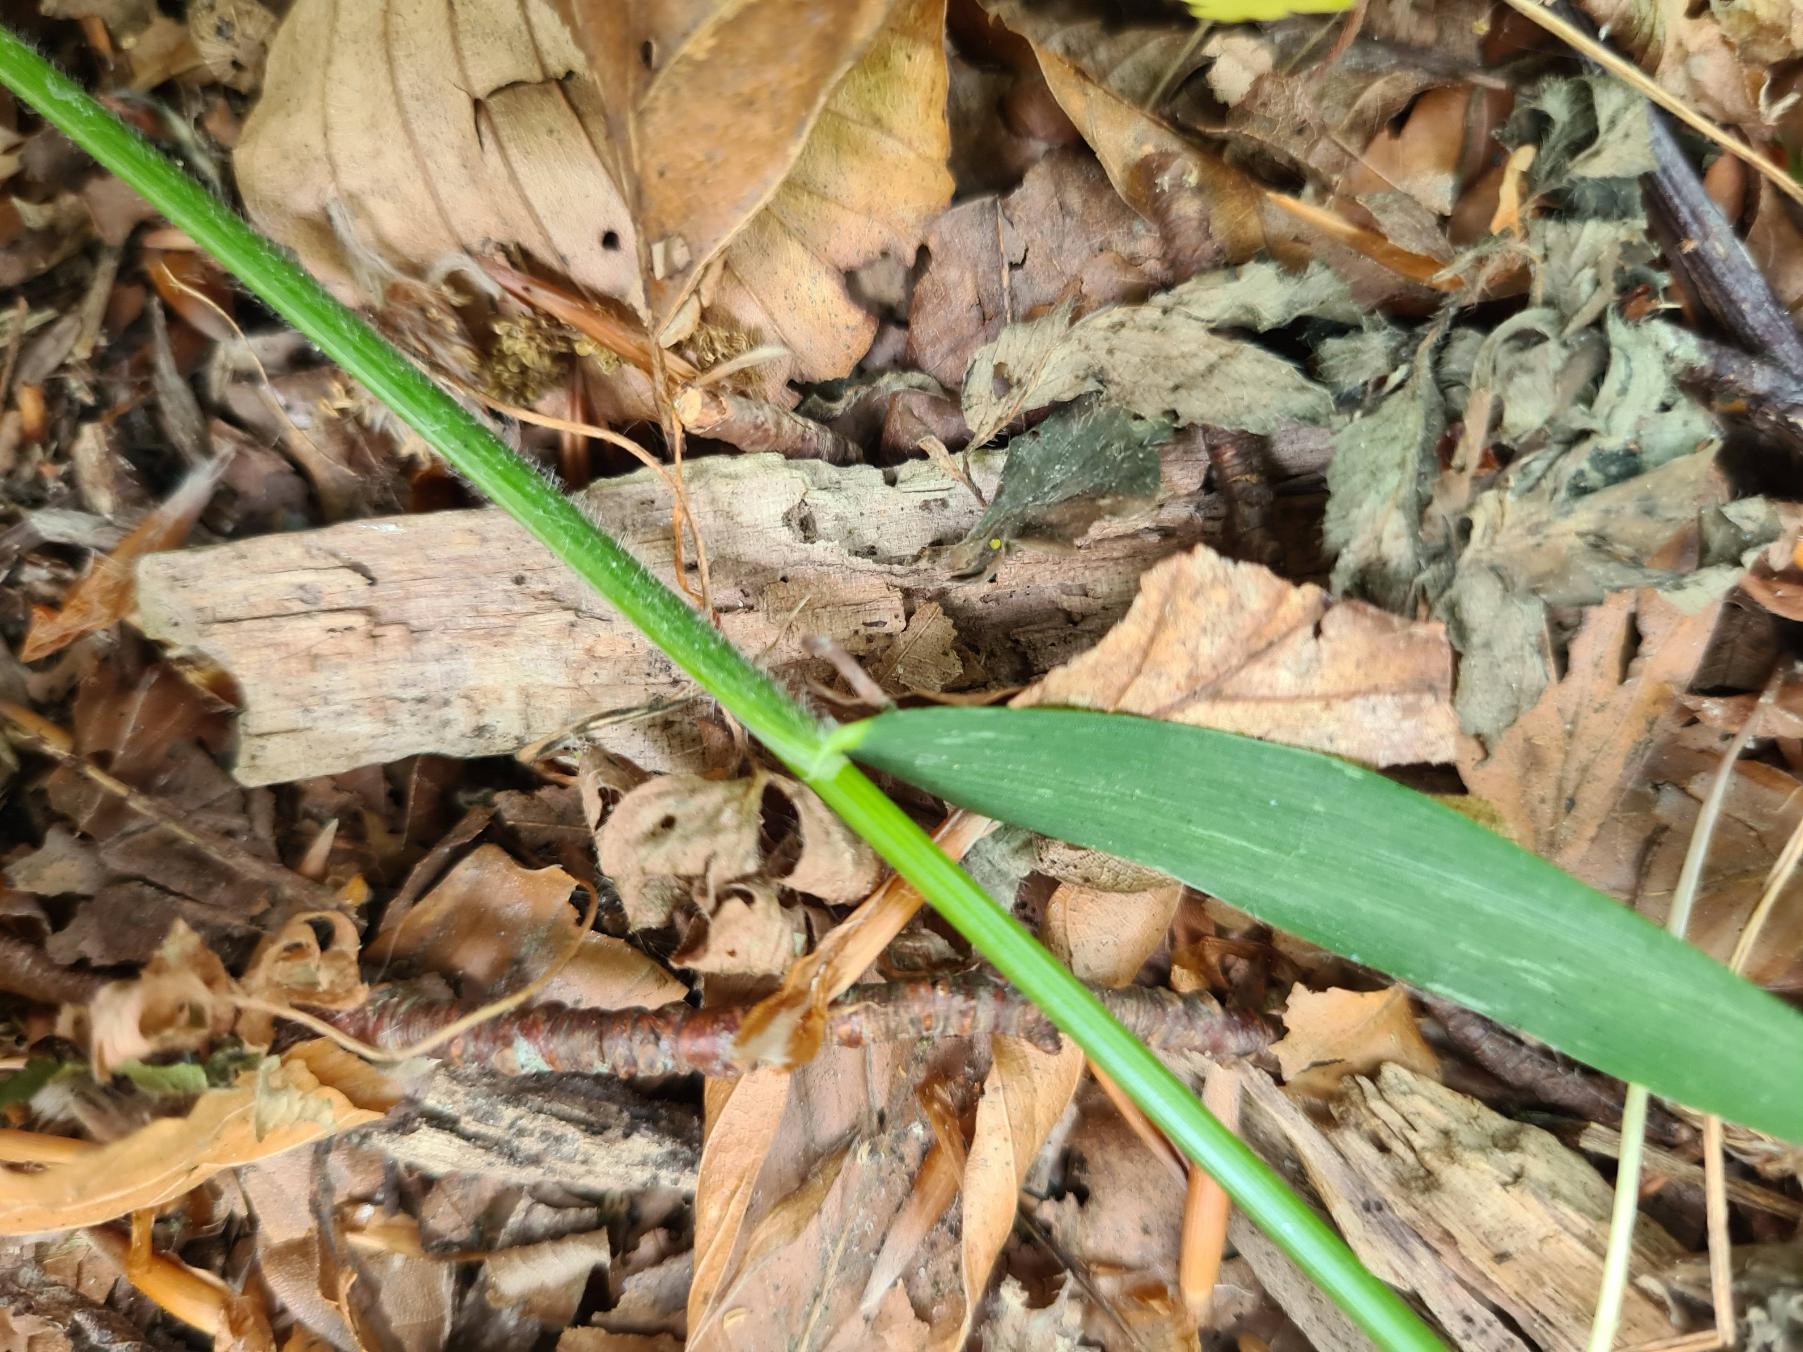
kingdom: Plantae
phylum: Tracheophyta
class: Liliopsida
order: Poales
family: Poaceae
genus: Hordelymus
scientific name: Hordelymus europaeus
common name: Skovbyg
